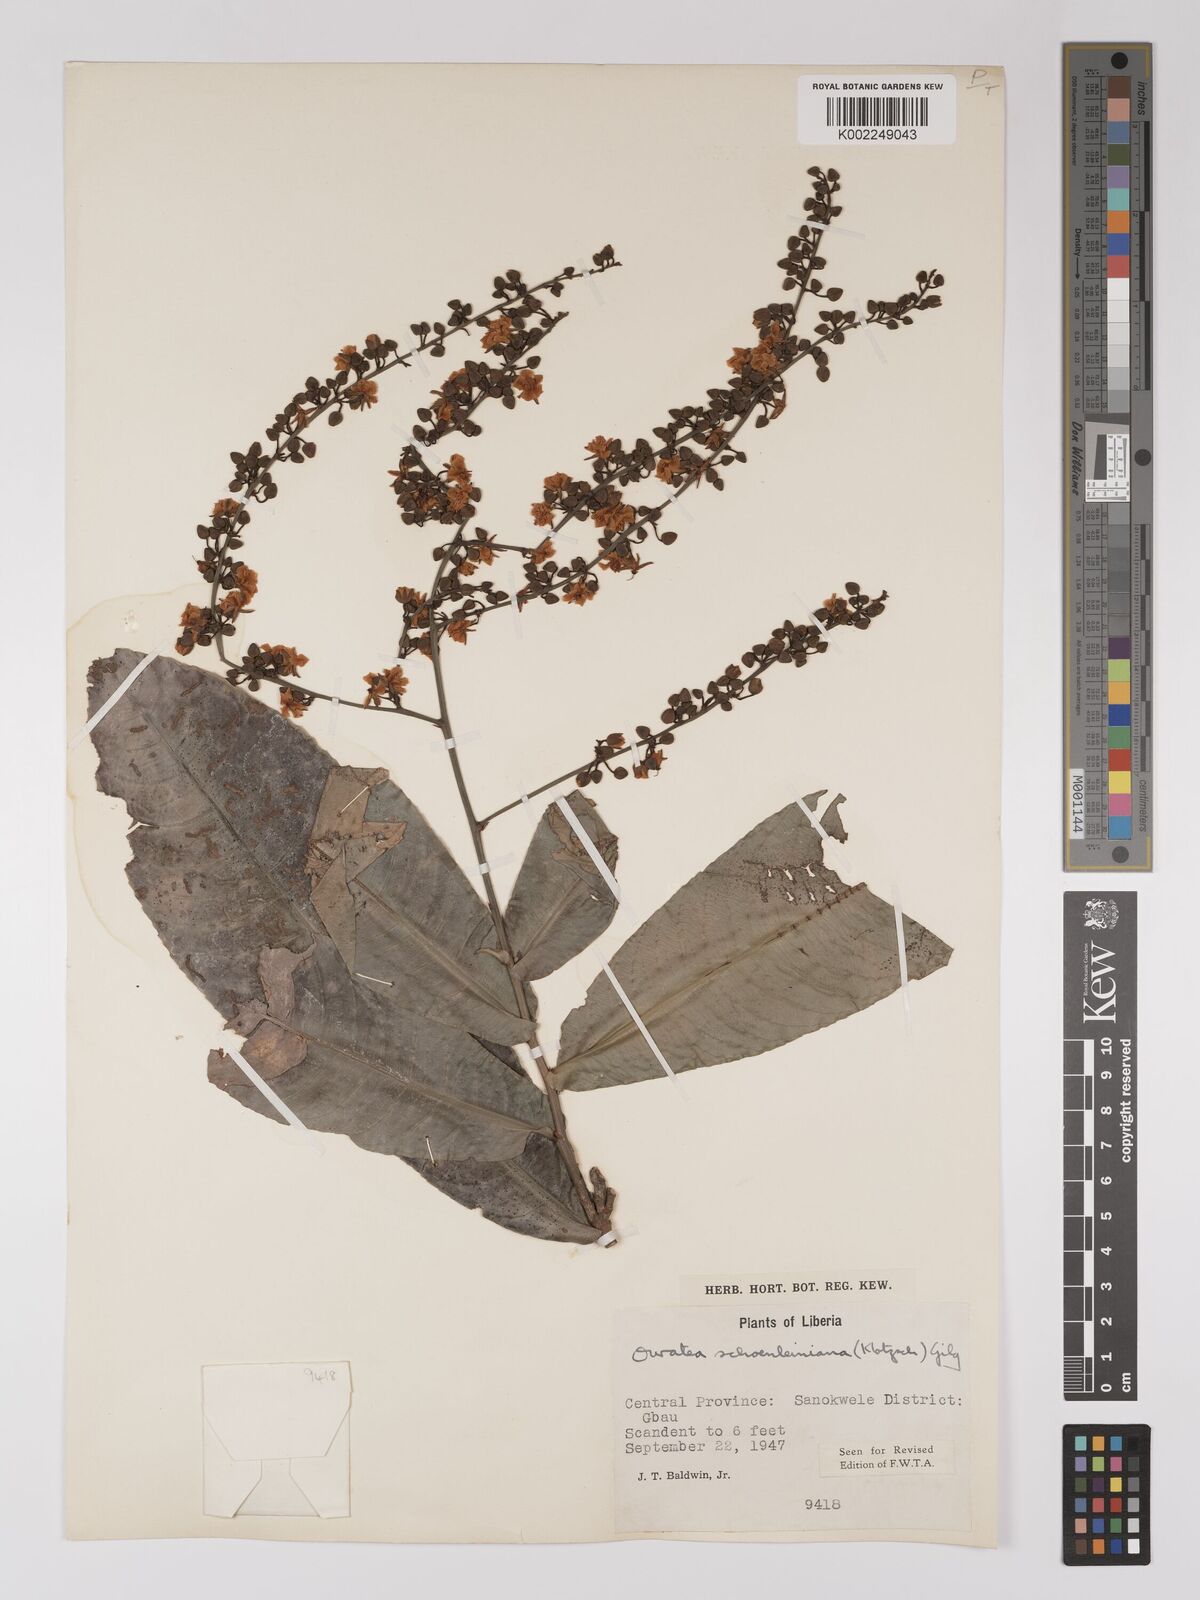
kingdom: Plantae
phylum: Tracheophyta
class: Magnoliopsida
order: Malpighiales
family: Ochnaceae
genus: Campylospermum
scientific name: Campylospermum schoenleinianum
